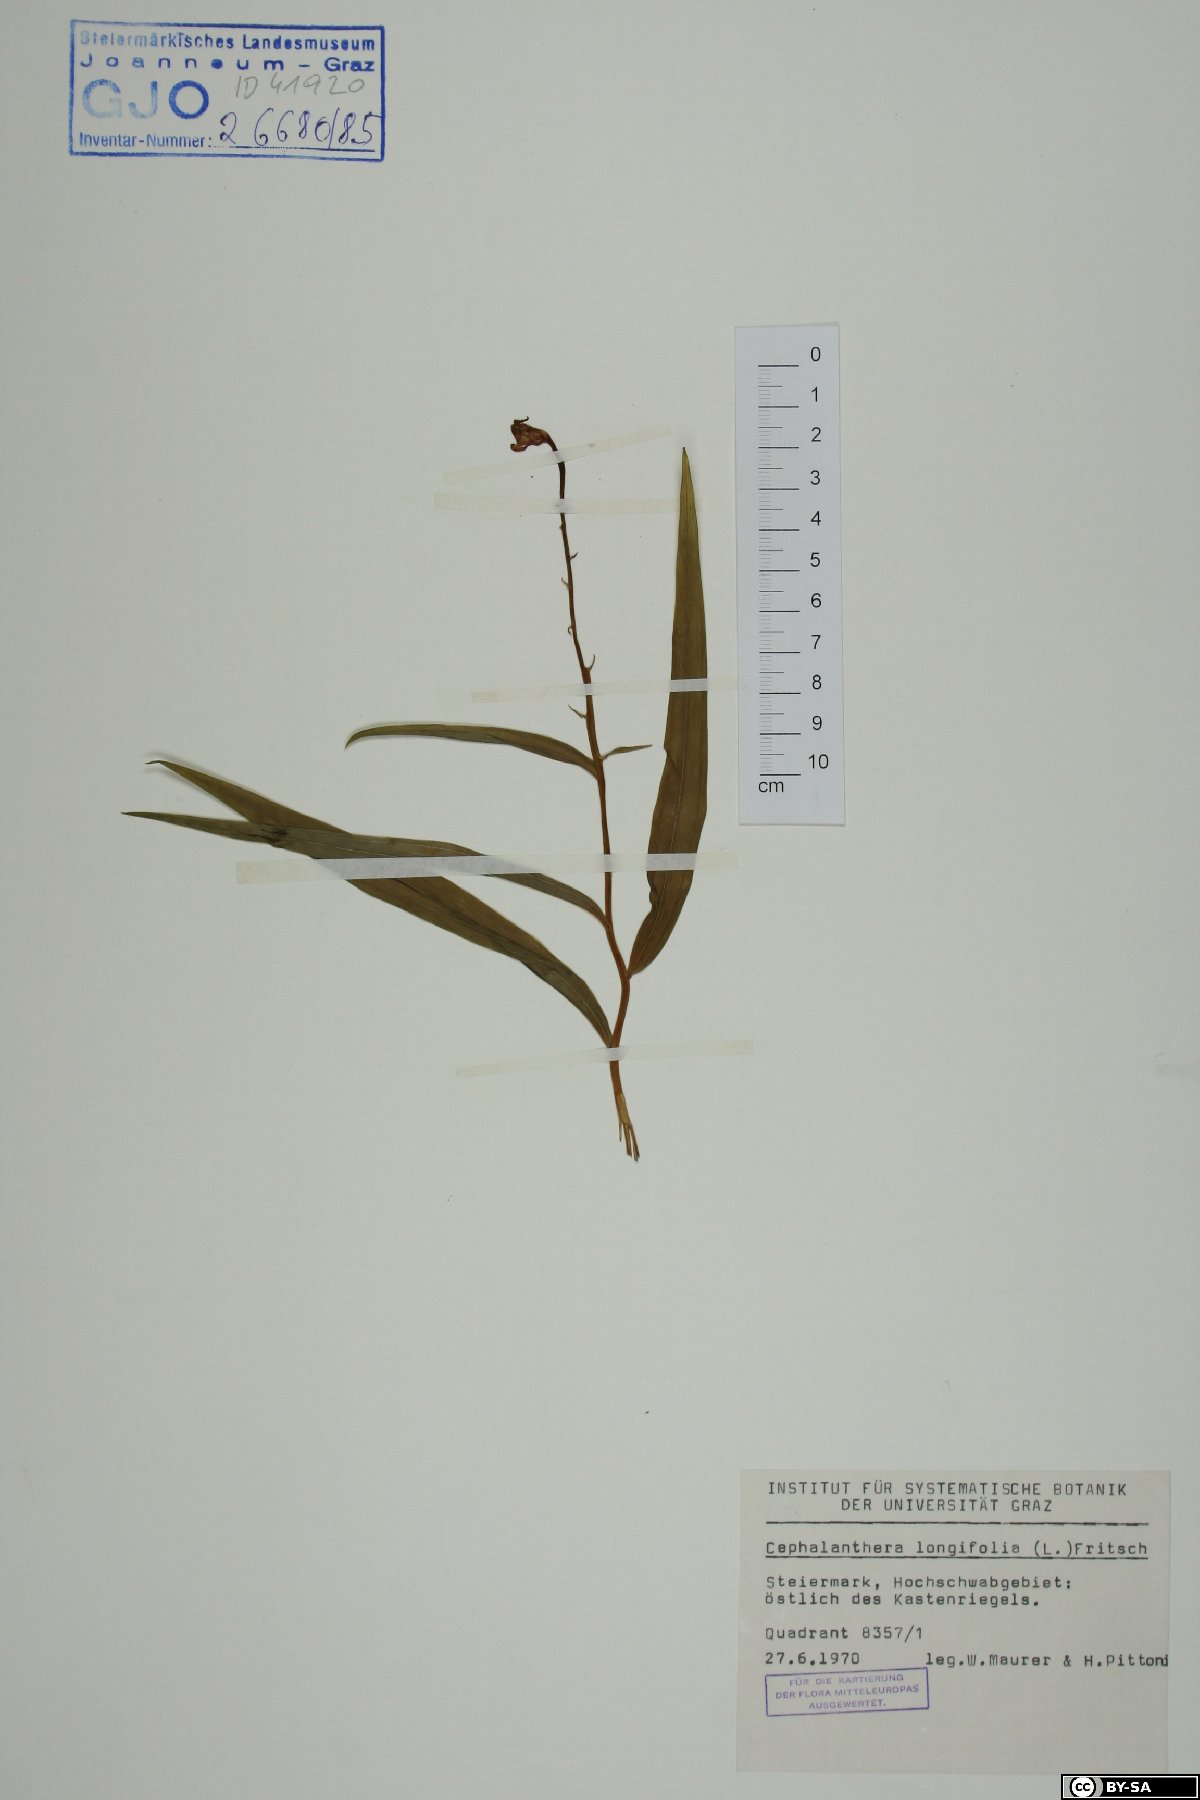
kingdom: Plantae
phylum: Tracheophyta
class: Liliopsida
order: Asparagales
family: Orchidaceae
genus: Cephalanthera
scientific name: Cephalanthera longifolia
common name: Narrow-leaved helleborine
